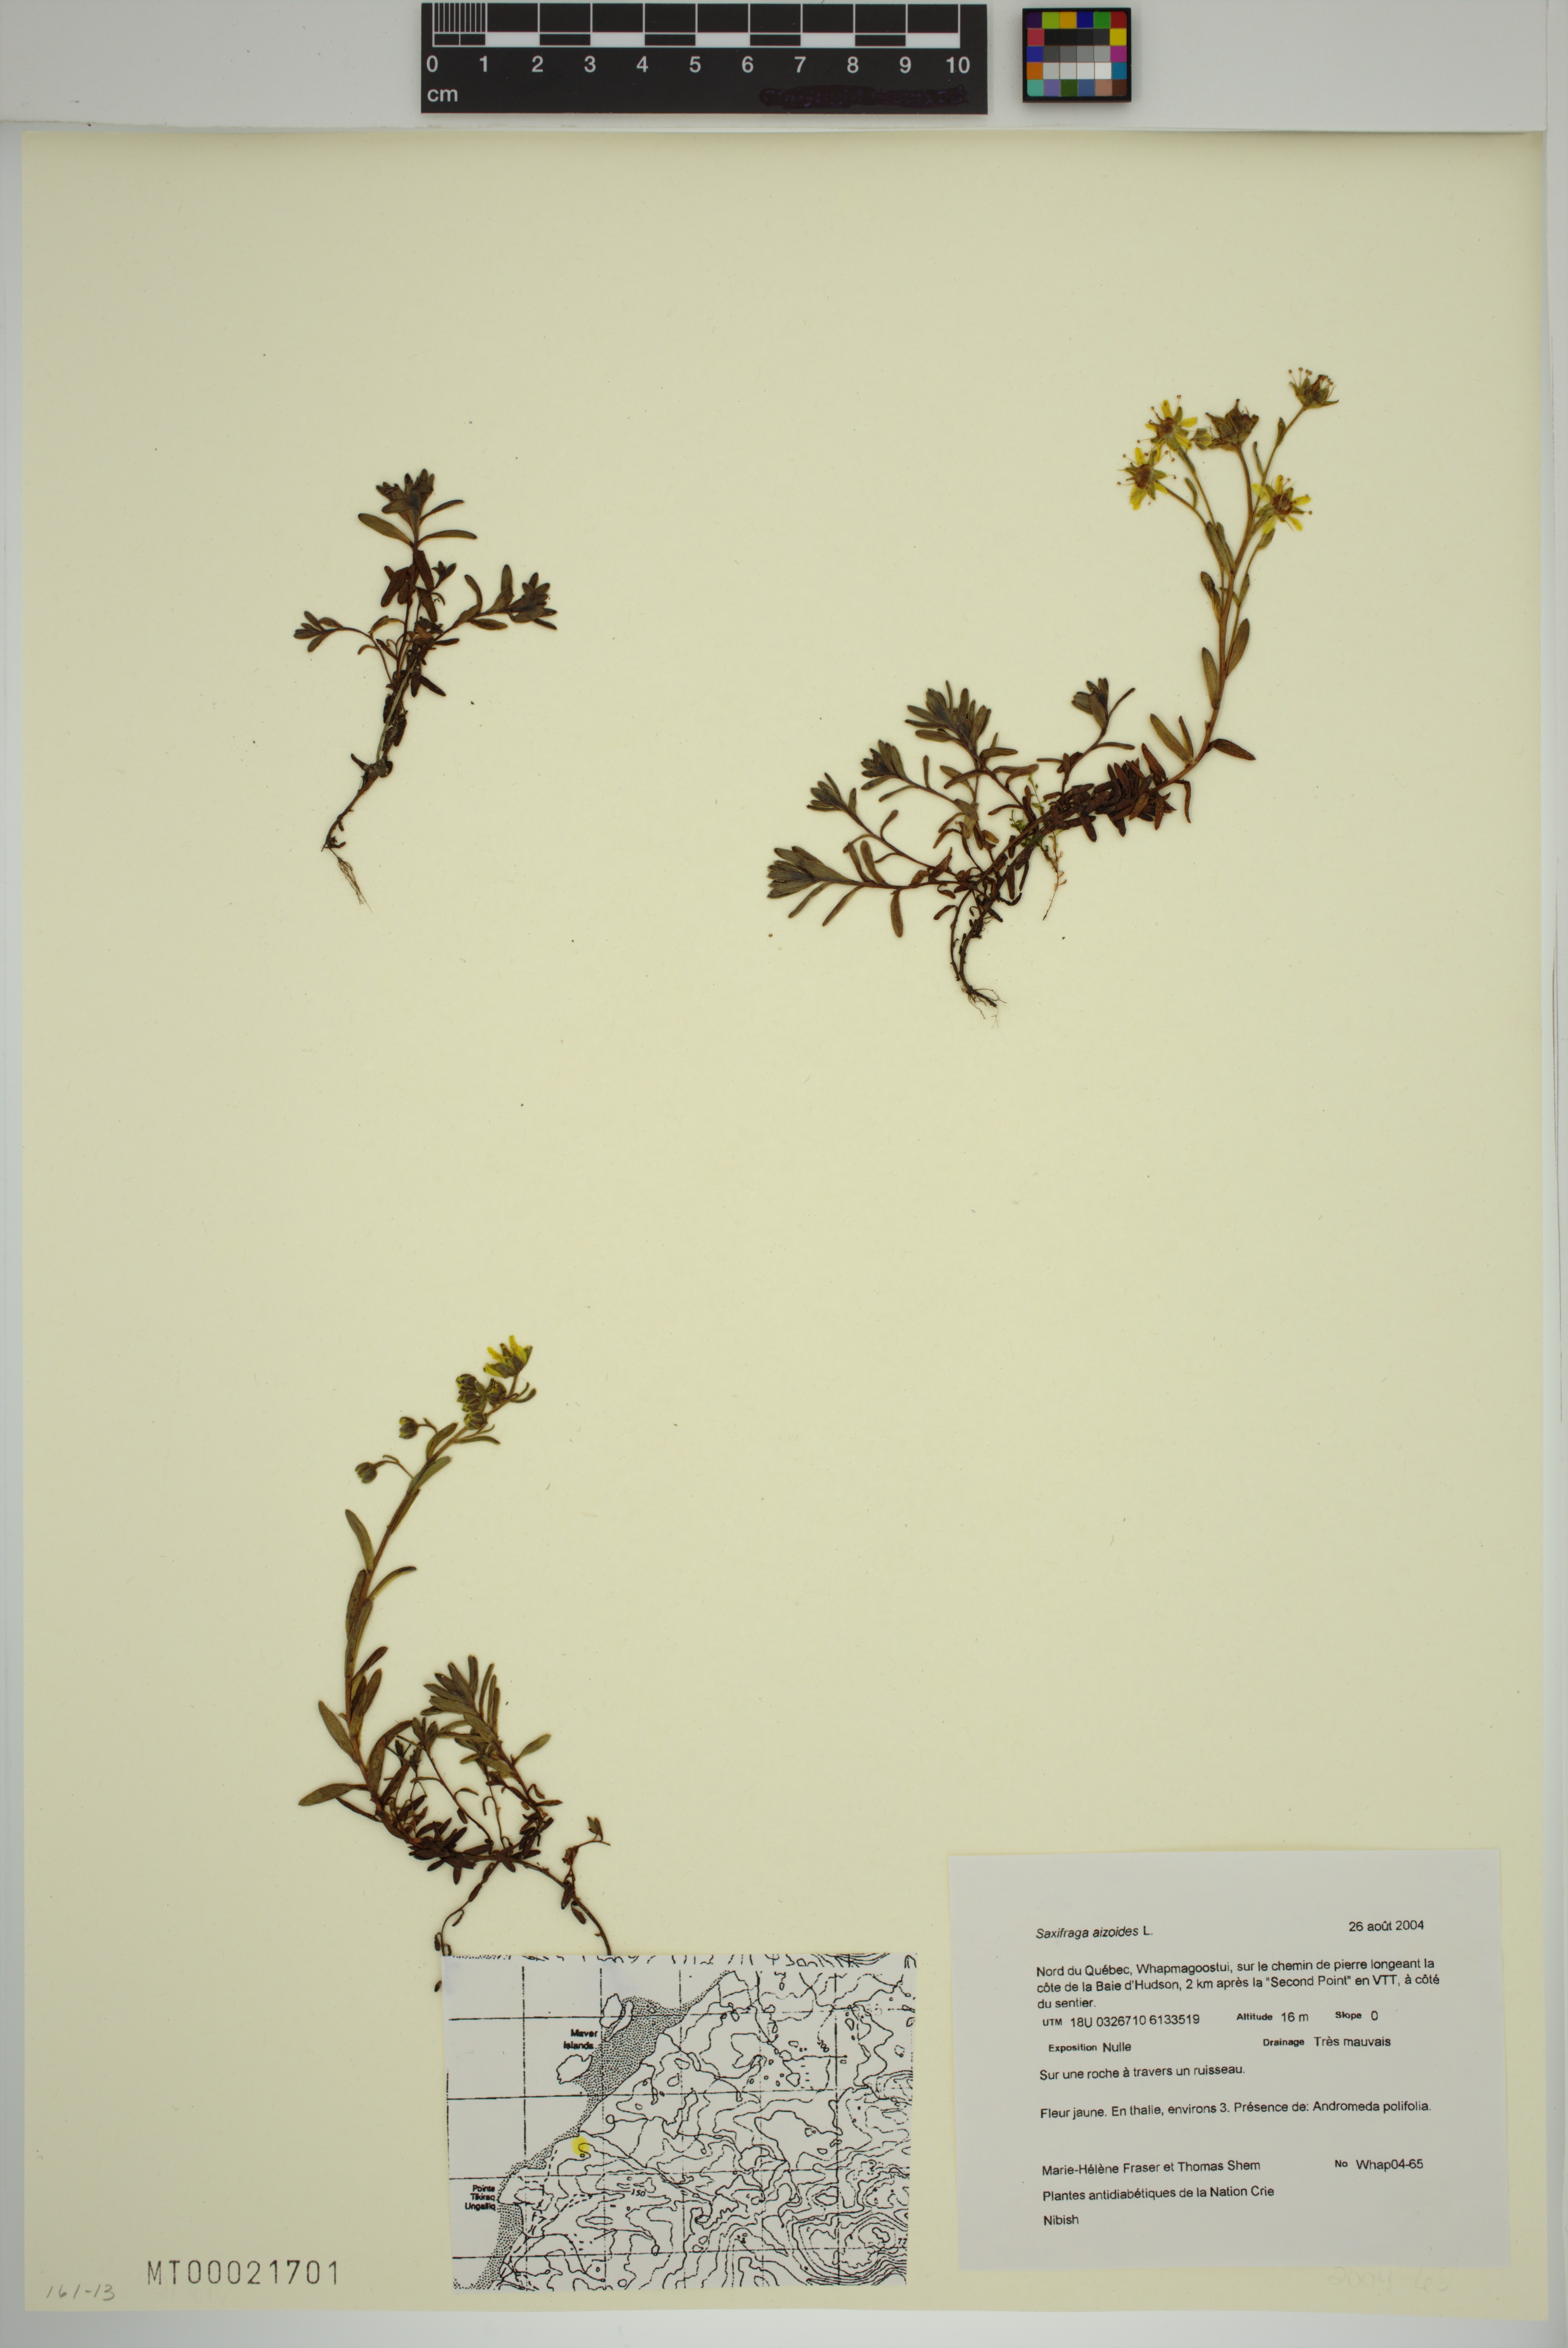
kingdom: Plantae
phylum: Tracheophyta
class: Magnoliopsida
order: Saxifragales
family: Saxifragaceae
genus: Saxifraga
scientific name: Saxifraga aizoides
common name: Yellow mountain saxifrage
